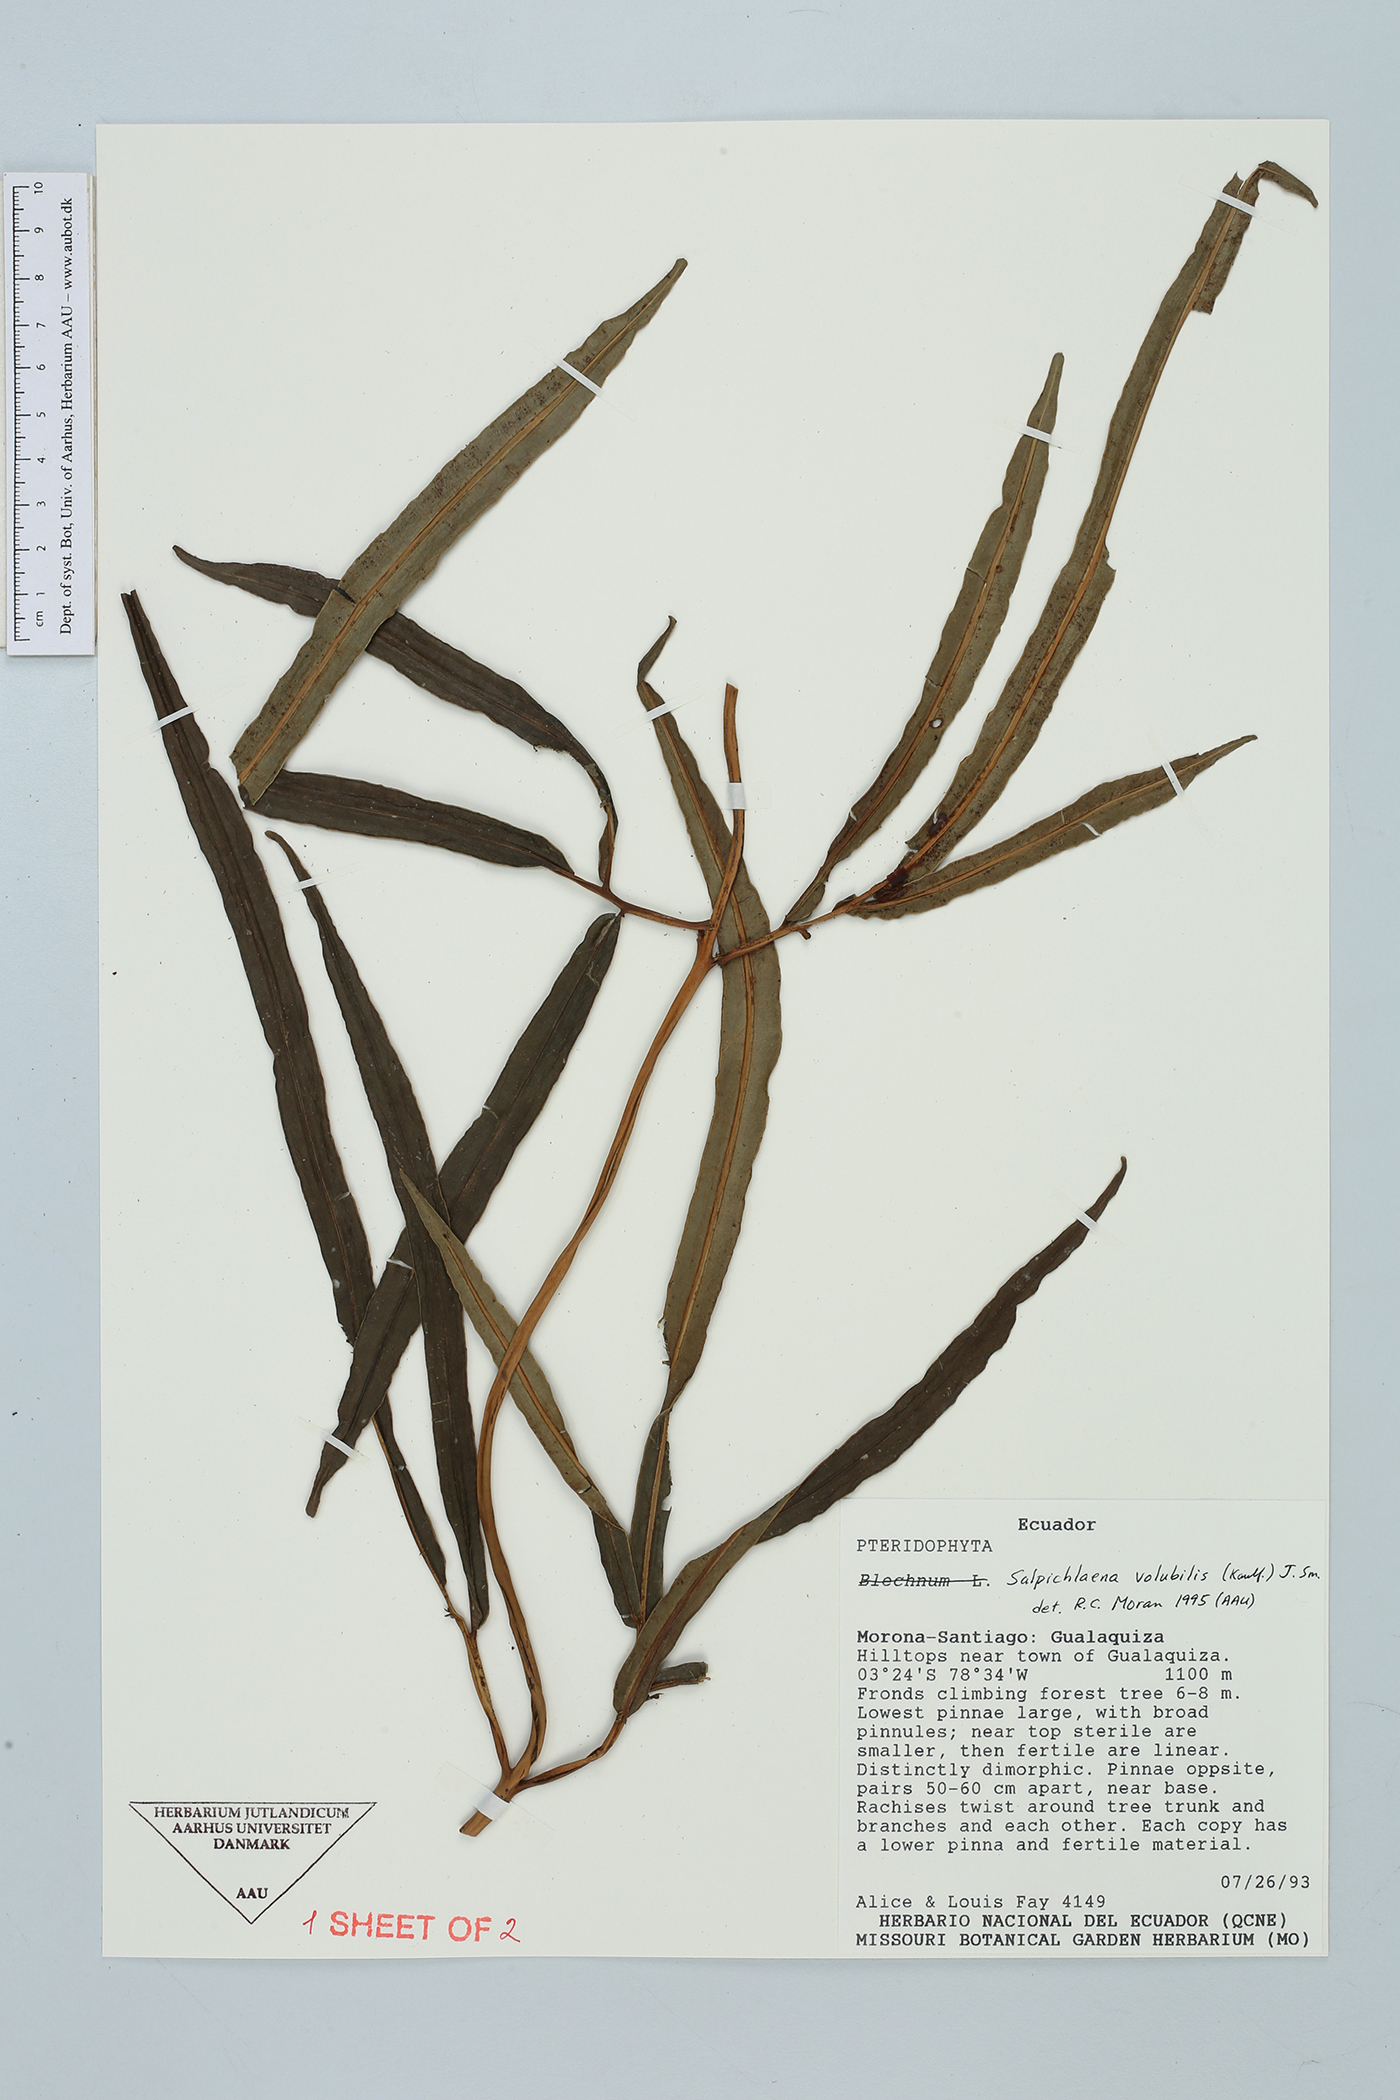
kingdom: Plantae
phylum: Tracheophyta
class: Polypodiopsida
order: Polypodiales
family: Blechnaceae
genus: Salpichlaena
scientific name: Salpichlaena volubilis
